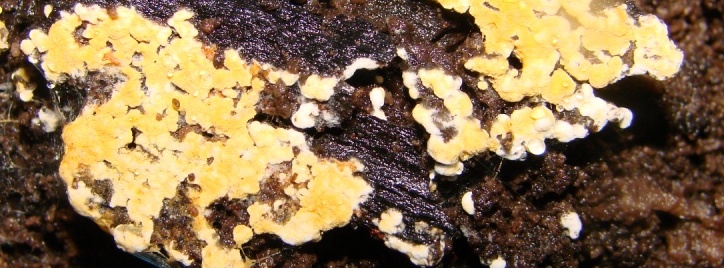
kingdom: Fungi
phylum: Basidiomycota
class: Agaricomycetes
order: Cantharellales
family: Botryobasidiaceae
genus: Botryobasidium
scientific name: Botryobasidium aureum
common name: gylden spindhinde
